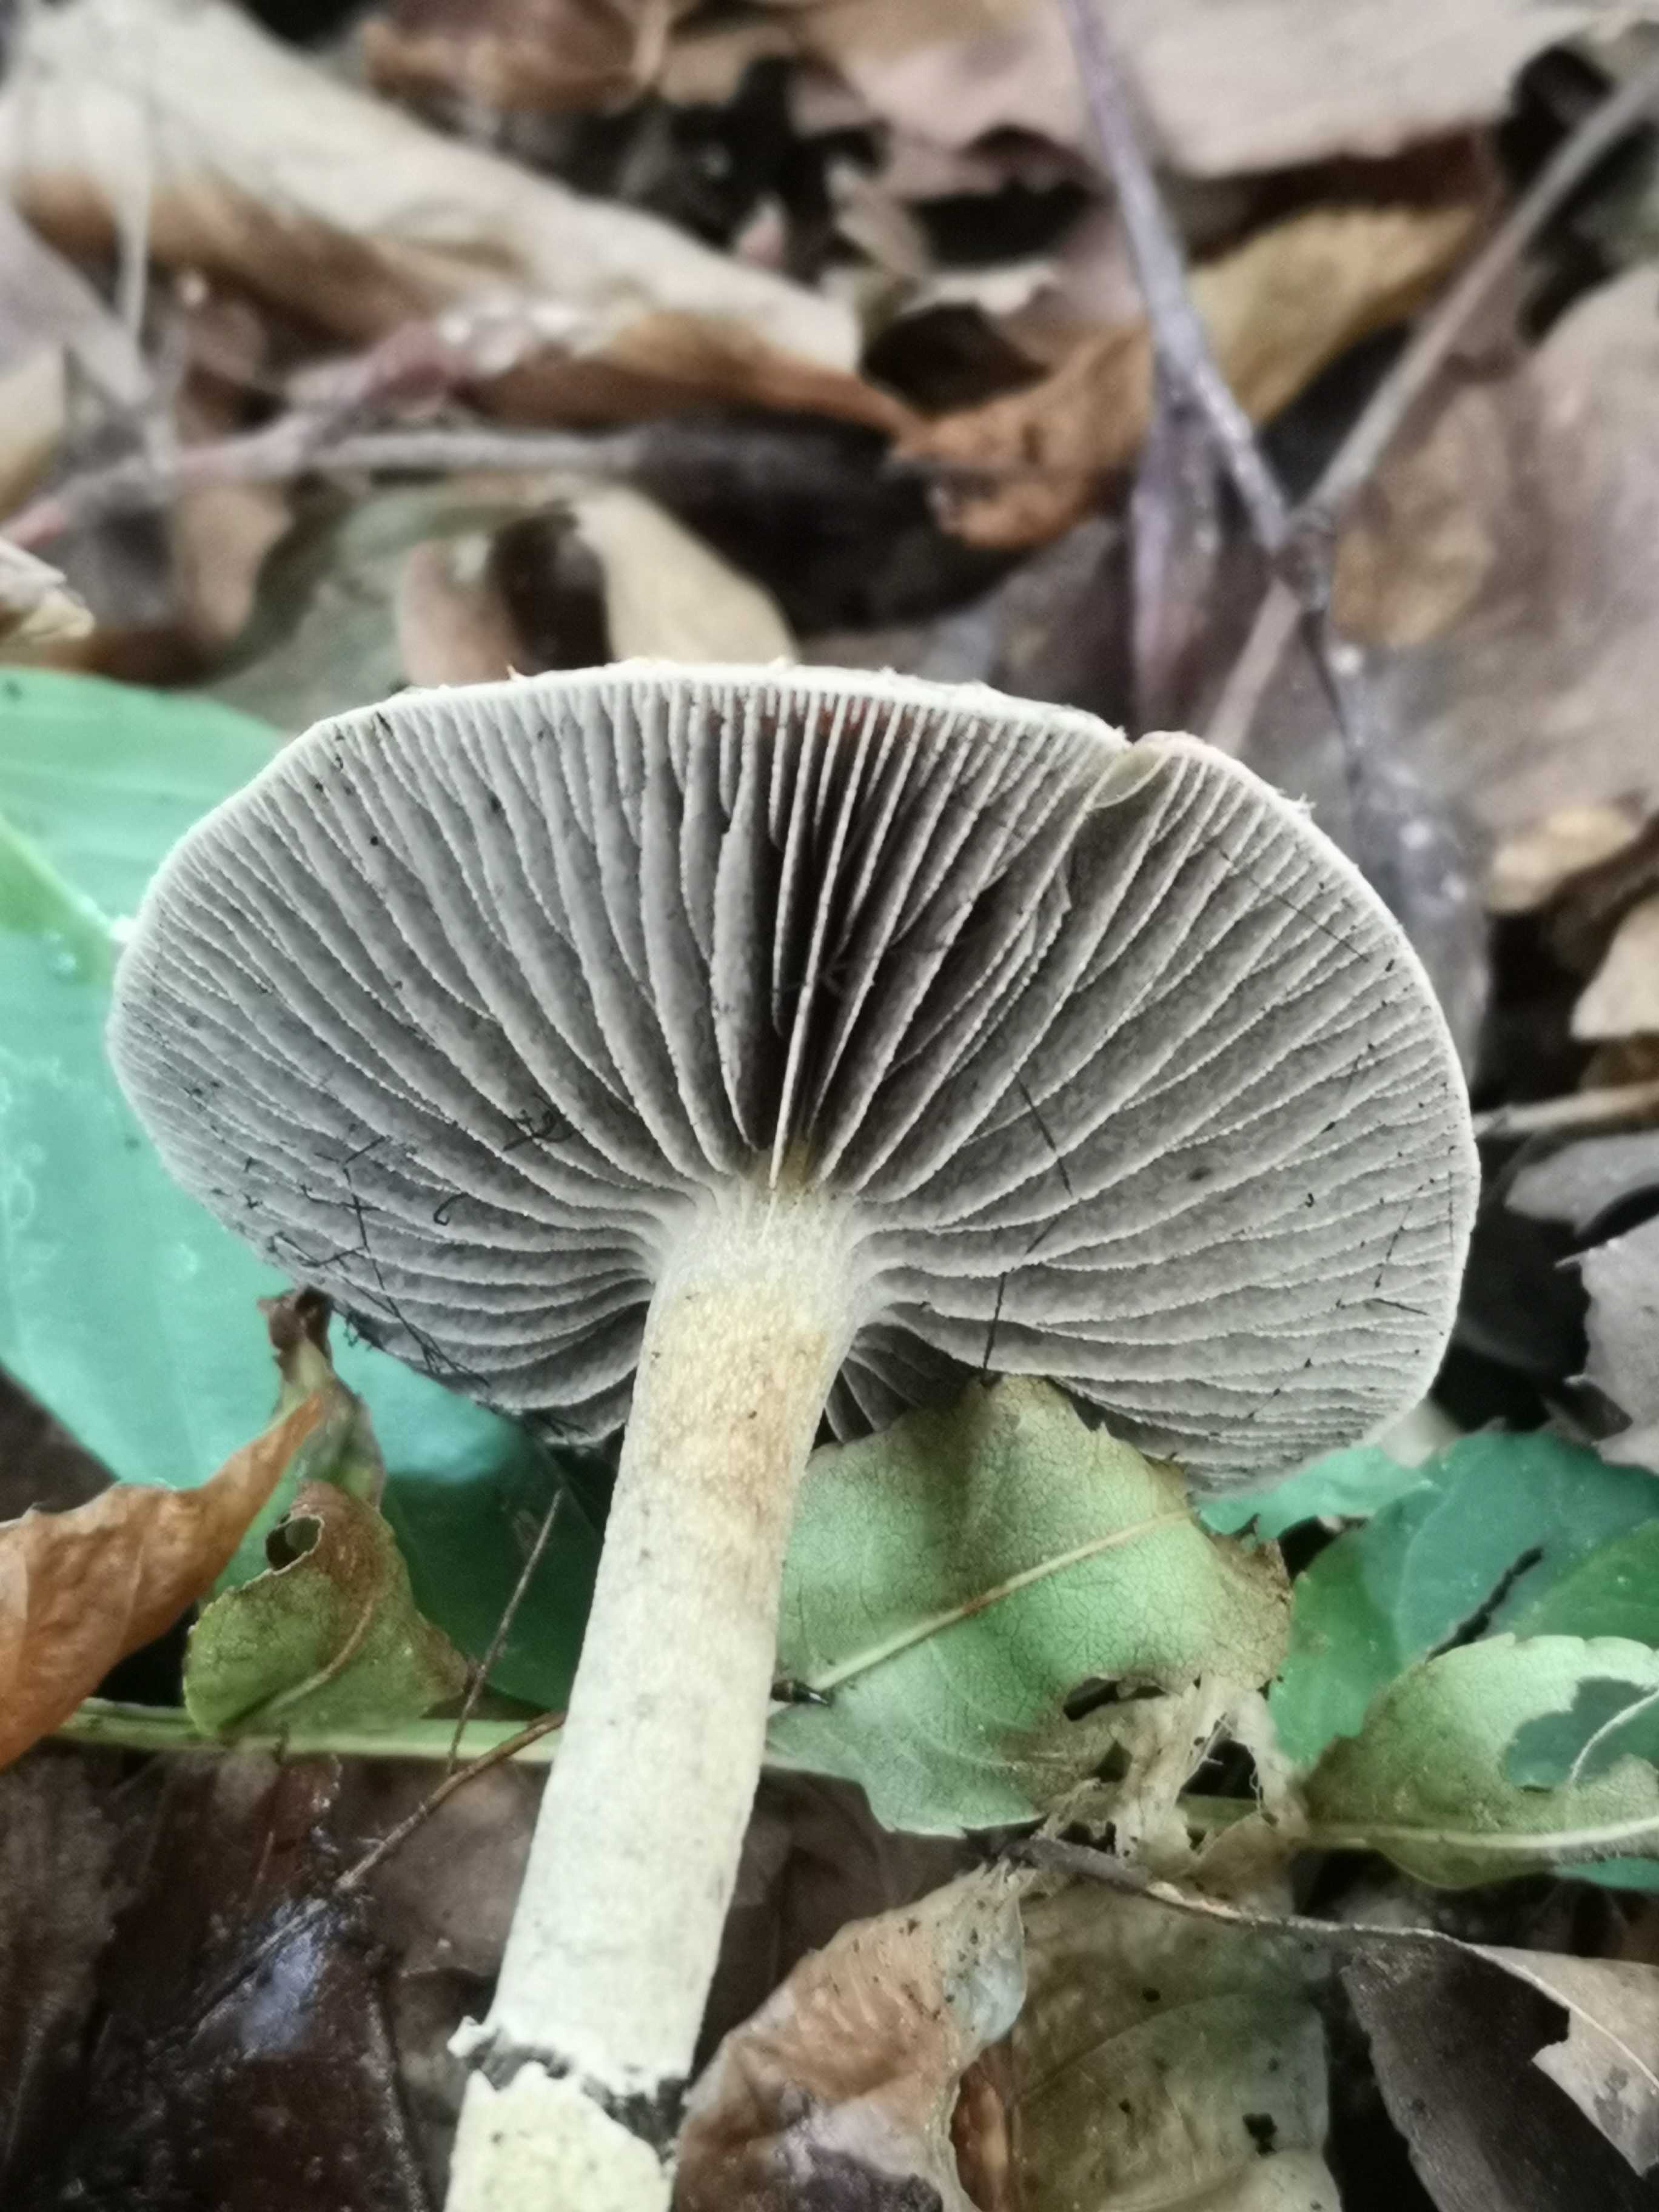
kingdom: Fungi
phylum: Basidiomycota
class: Agaricomycetes
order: Agaricales
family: Strophariaceae
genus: Leratiomyces
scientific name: Leratiomyces squamosus
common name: skællet bredblad
